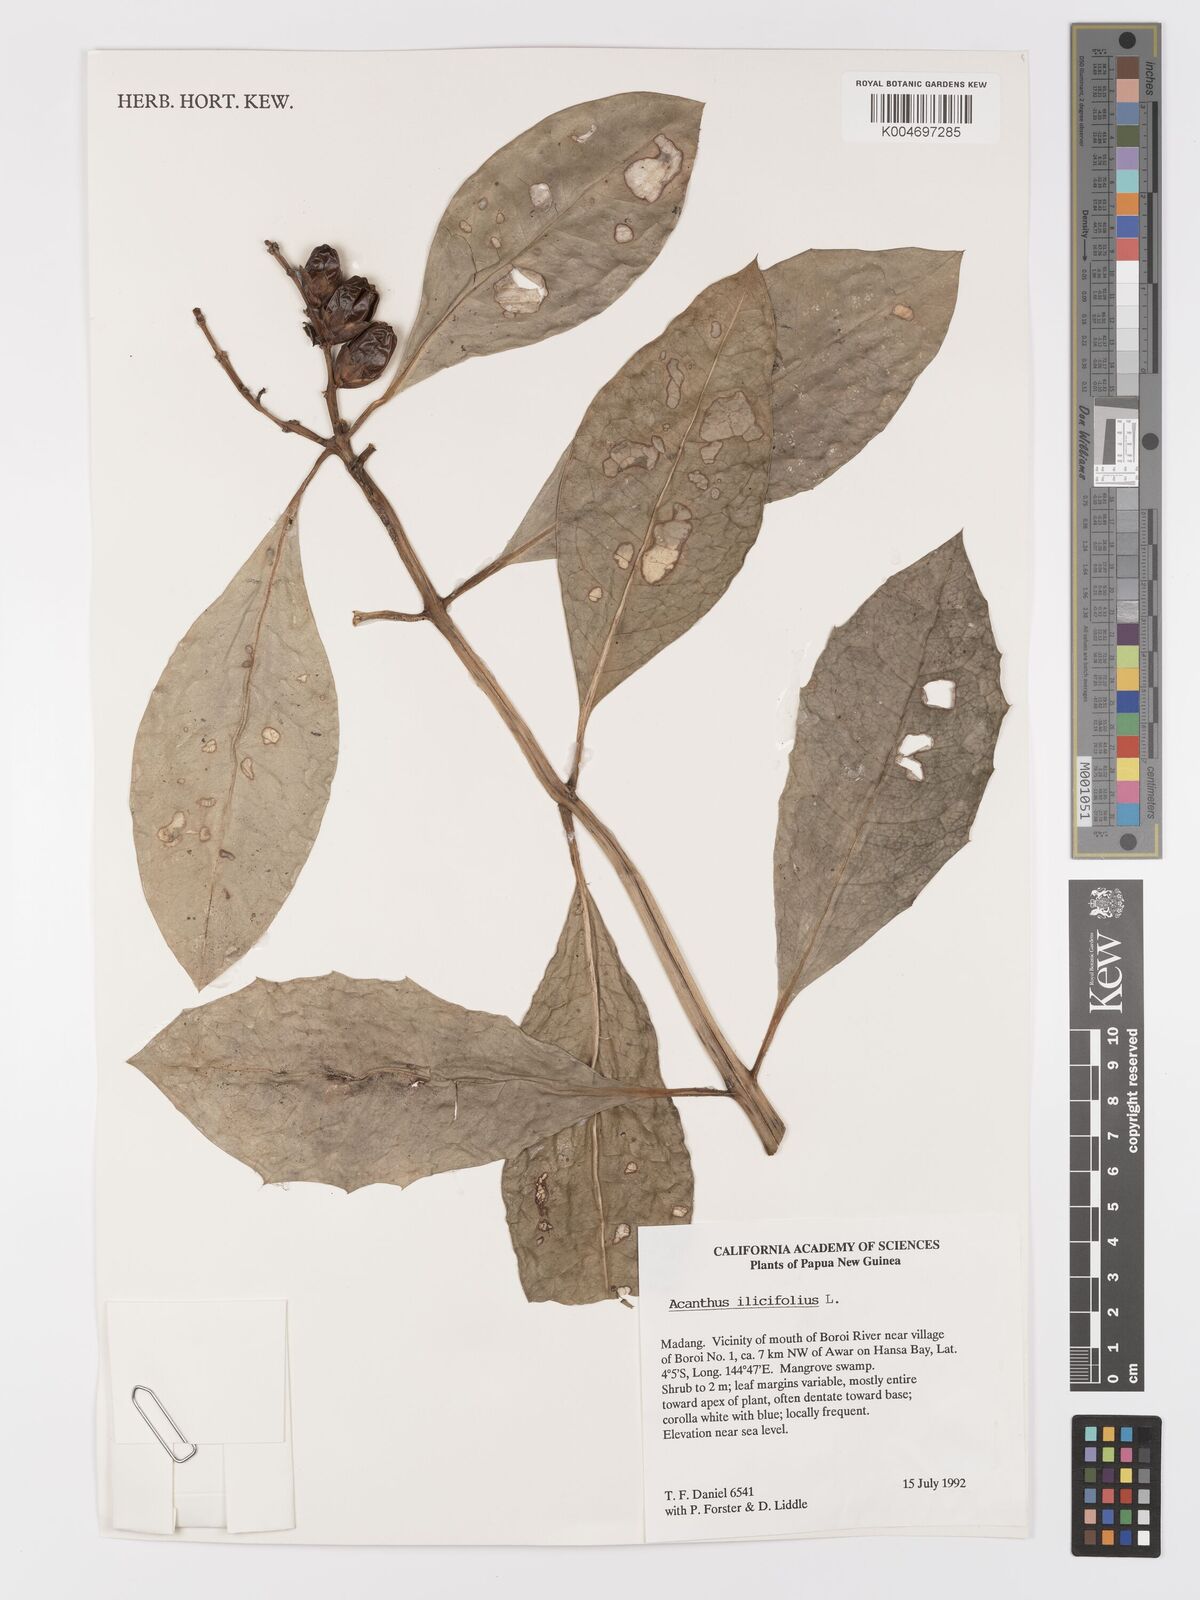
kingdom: Plantae
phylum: Tracheophyta
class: Magnoliopsida
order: Lamiales
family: Acanthaceae
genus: Acanthus
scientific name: Acanthus ilicifolius
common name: Holy mangrove
